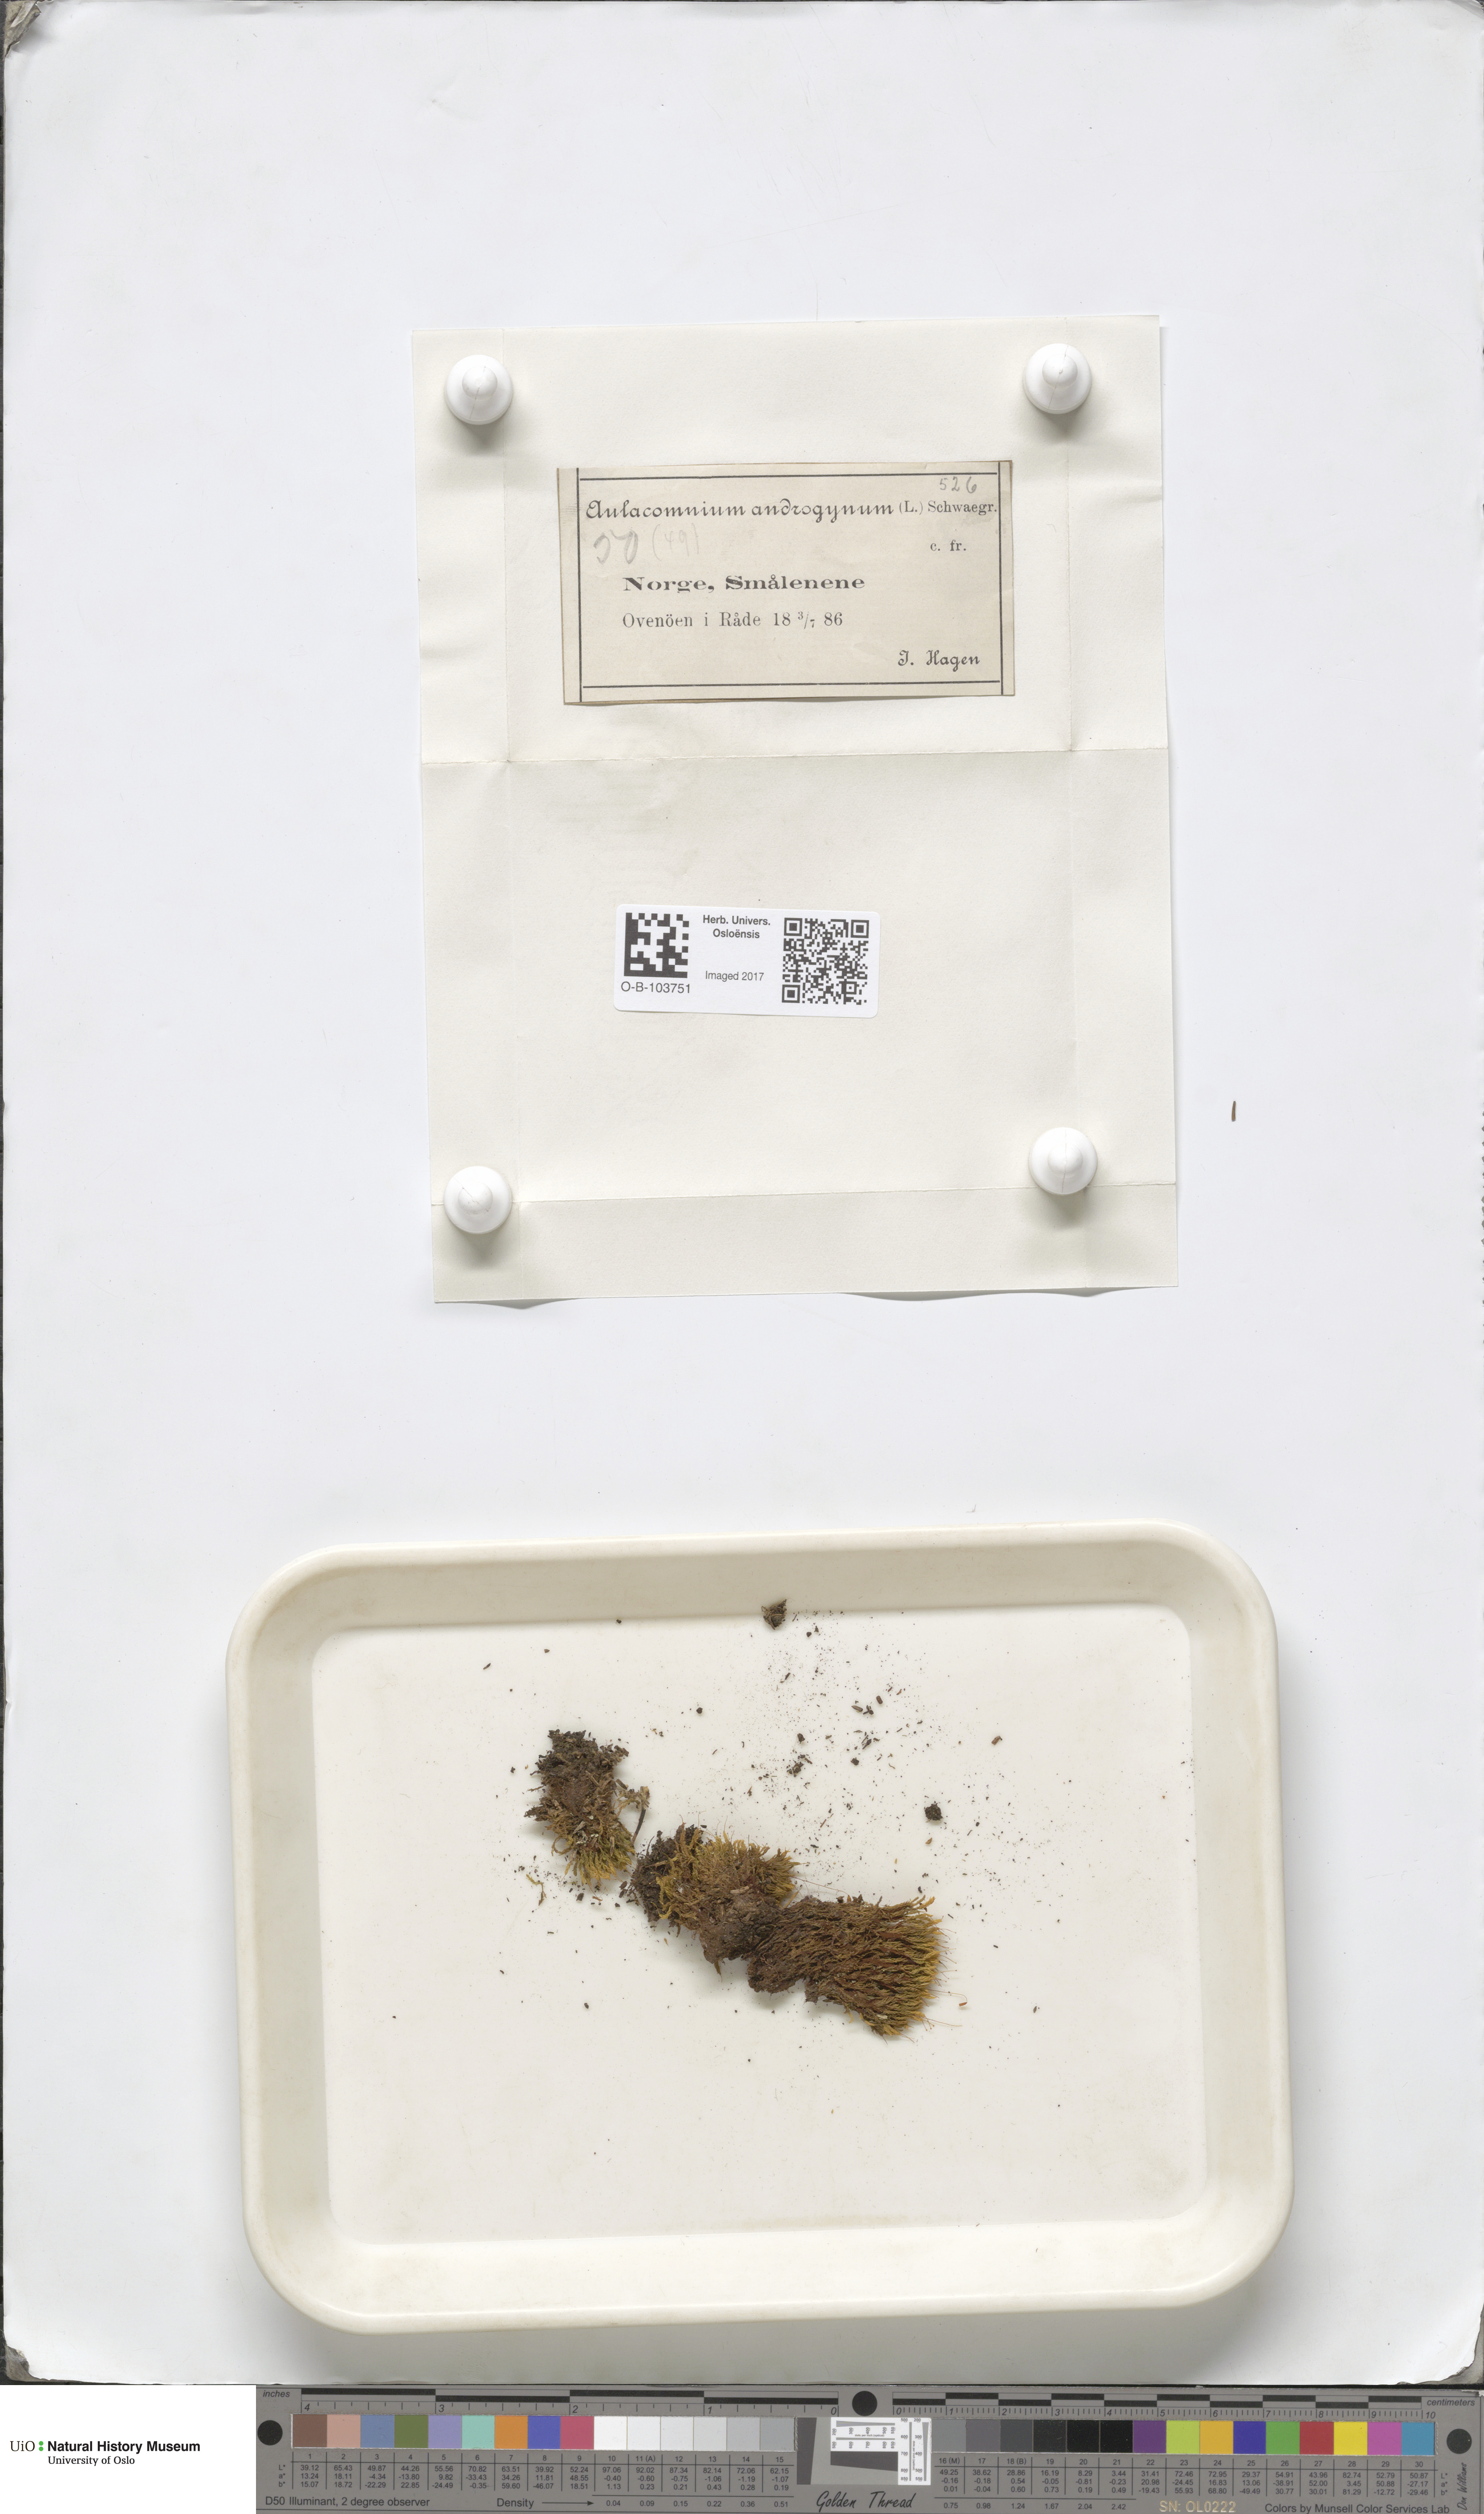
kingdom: Plantae
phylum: Bryophyta
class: Bryopsida
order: Aulacomniales
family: Aulacomniaceae
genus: Aulacomnium
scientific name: Aulacomnium androgynum
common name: Little groove moss
